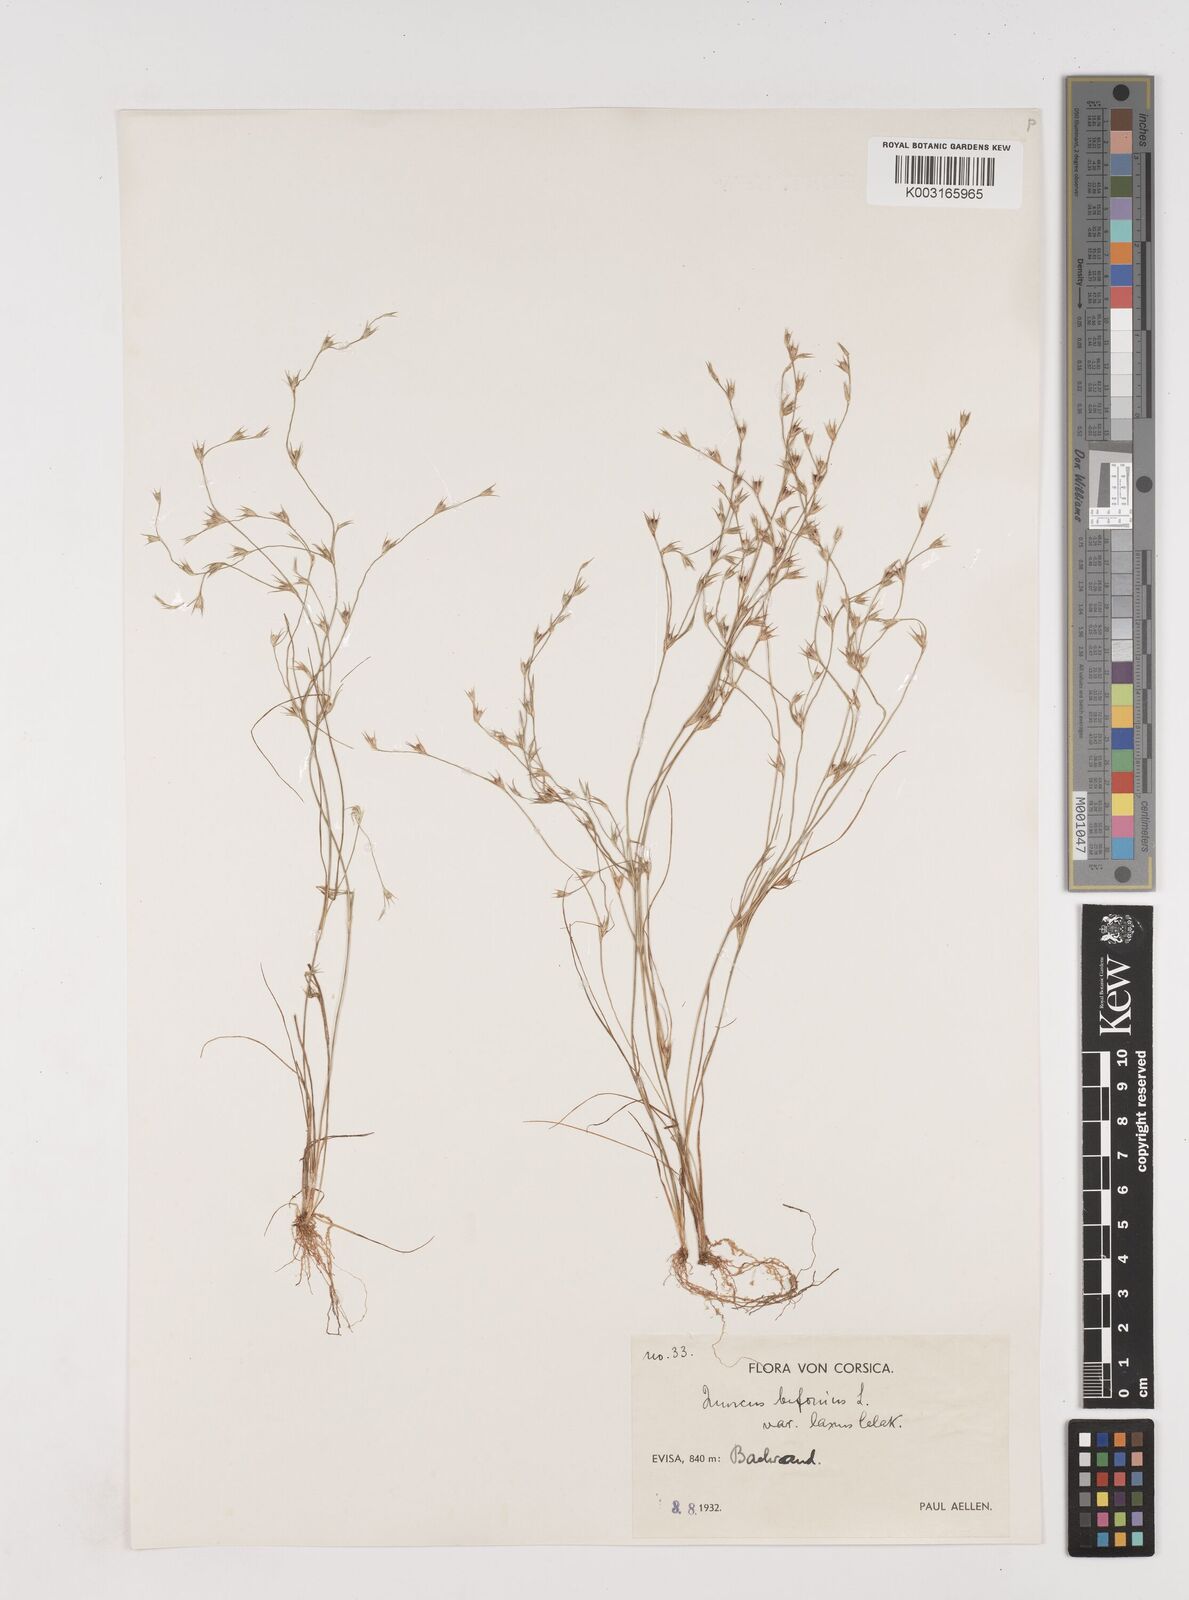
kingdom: Plantae
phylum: Tracheophyta
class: Liliopsida
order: Poales
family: Juncaceae
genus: Juncus
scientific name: Juncus bufonius
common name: Toad rush
